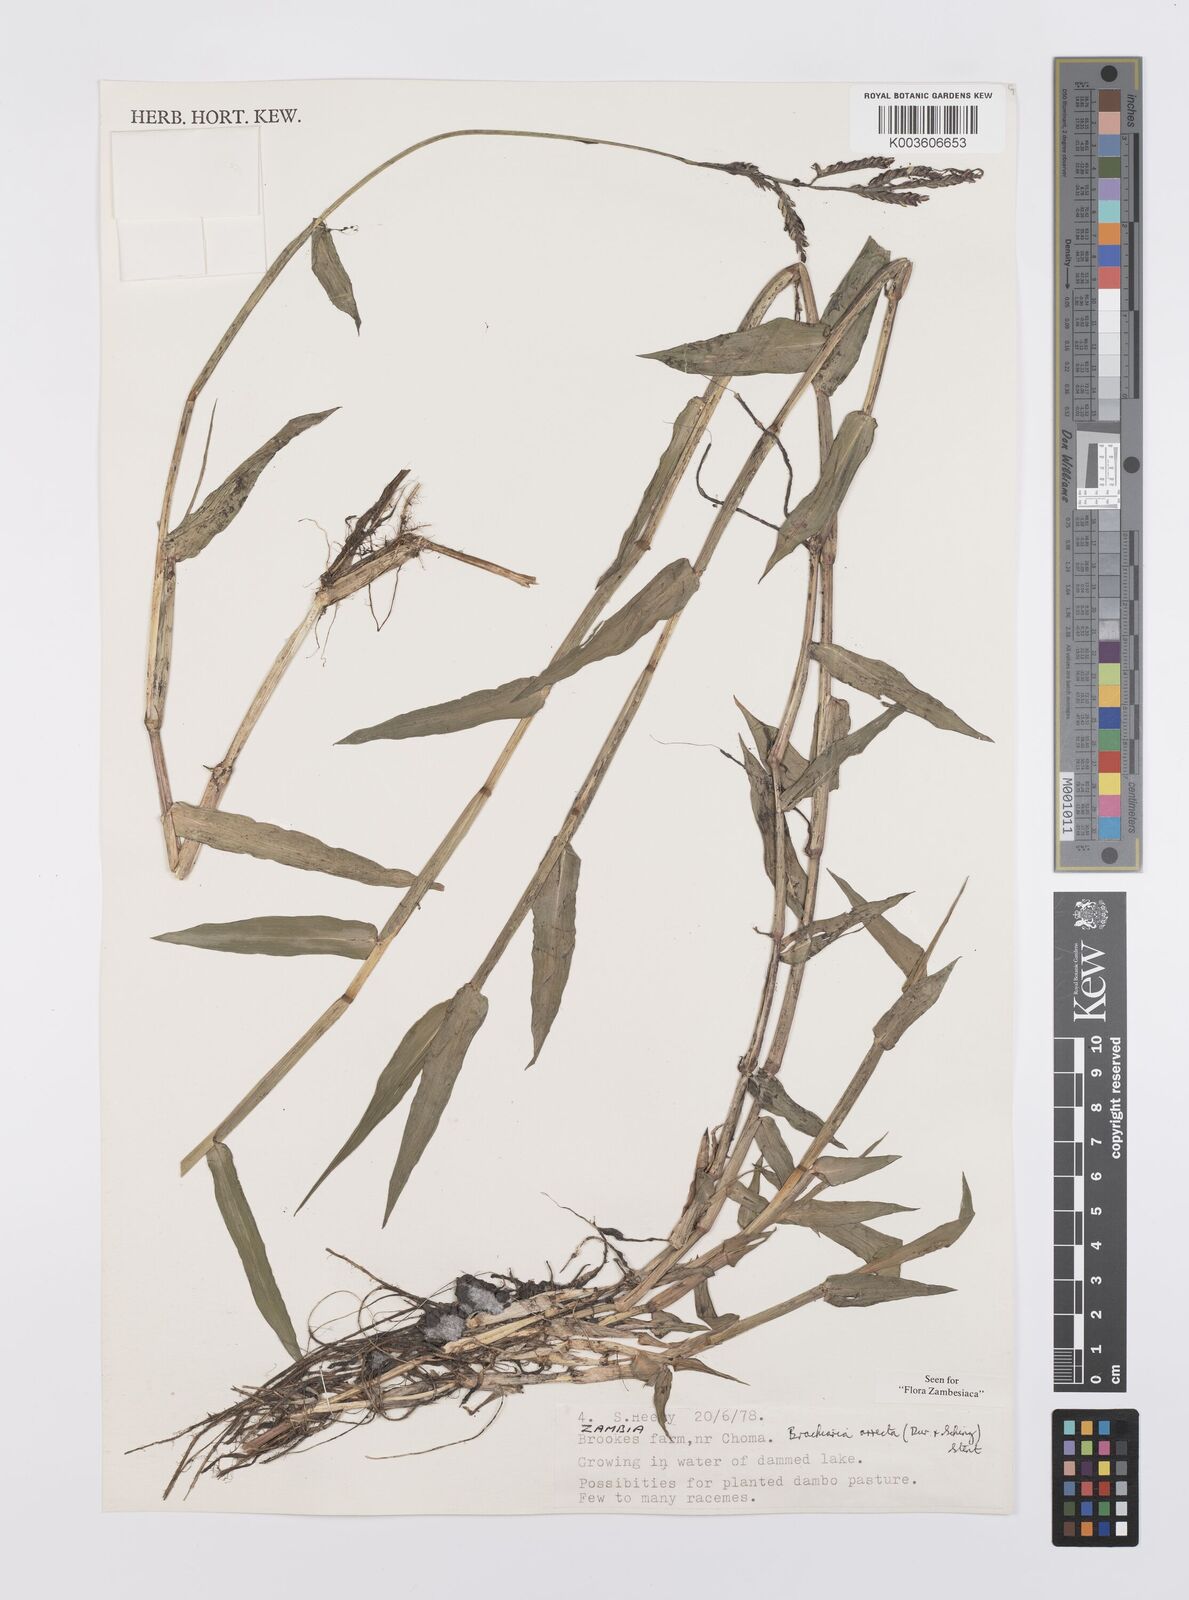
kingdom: Plantae
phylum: Tracheophyta
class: Liliopsida
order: Poales
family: Poaceae
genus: Urochloa
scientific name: Urochloa arrecta
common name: African signalgrass
